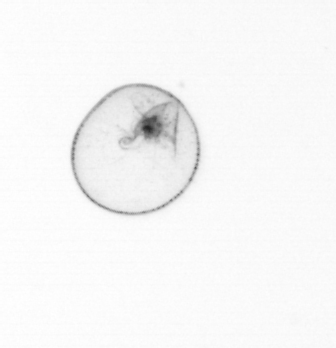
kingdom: Chromista
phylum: Myzozoa
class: Dinophyceae
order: Noctilucales
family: Noctilucaceae
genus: Noctiluca
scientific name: Noctiluca scintillans
